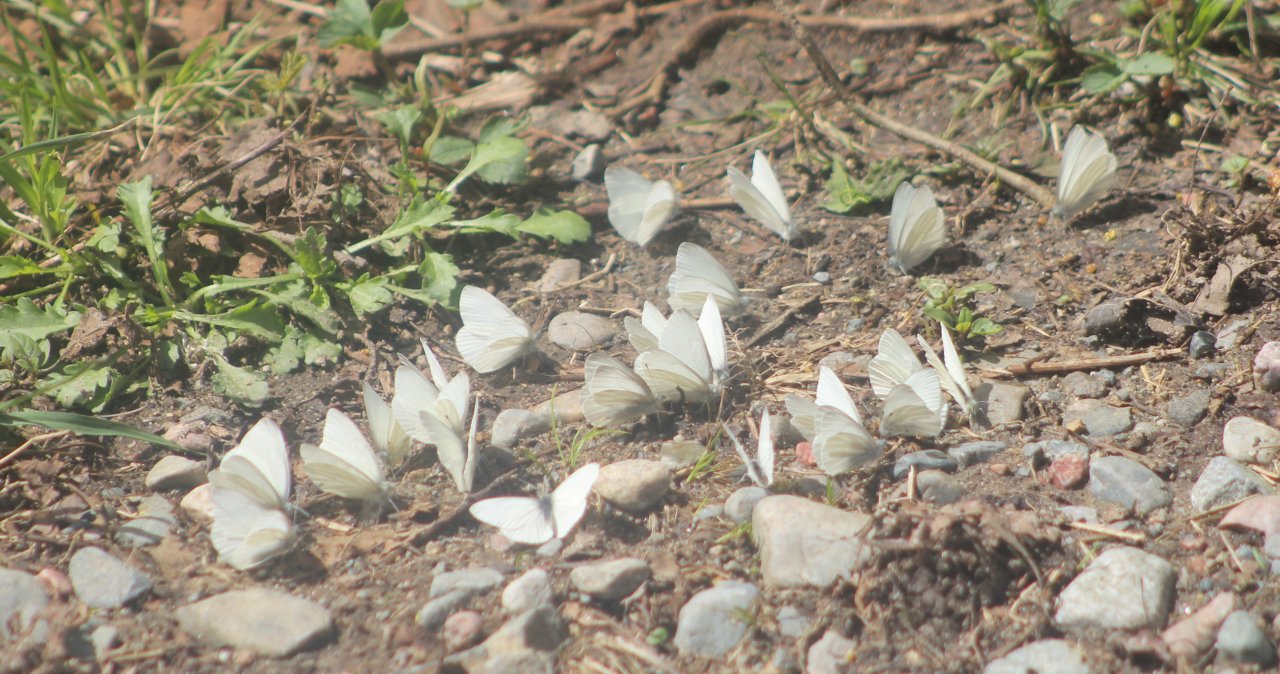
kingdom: Animalia
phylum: Arthropoda
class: Insecta
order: Lepidoptera
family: Pieridae
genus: Pieris
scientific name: Pieris virginiensis
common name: West Virginia White
